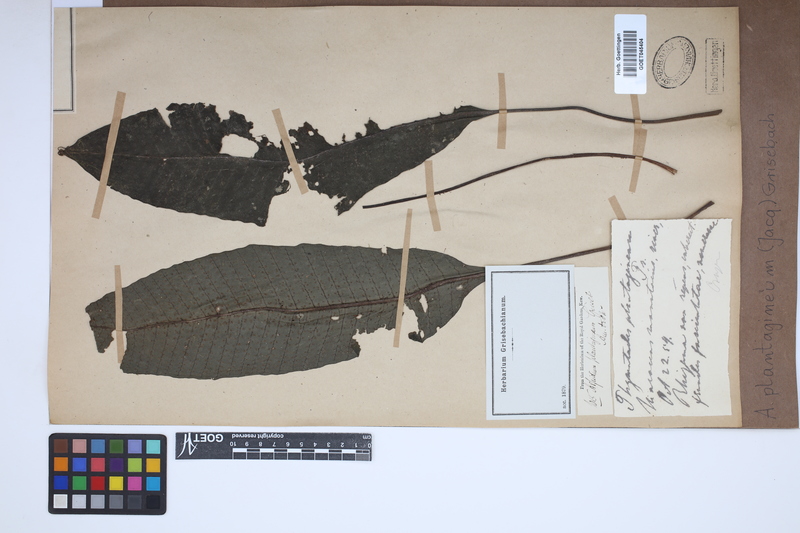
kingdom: Plantae
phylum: Tracheophyta
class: Polypodiopsida
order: Polypodiales
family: Lomariopsidaceae
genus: Dracoglossum
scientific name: Dracoglossum plantagineum
